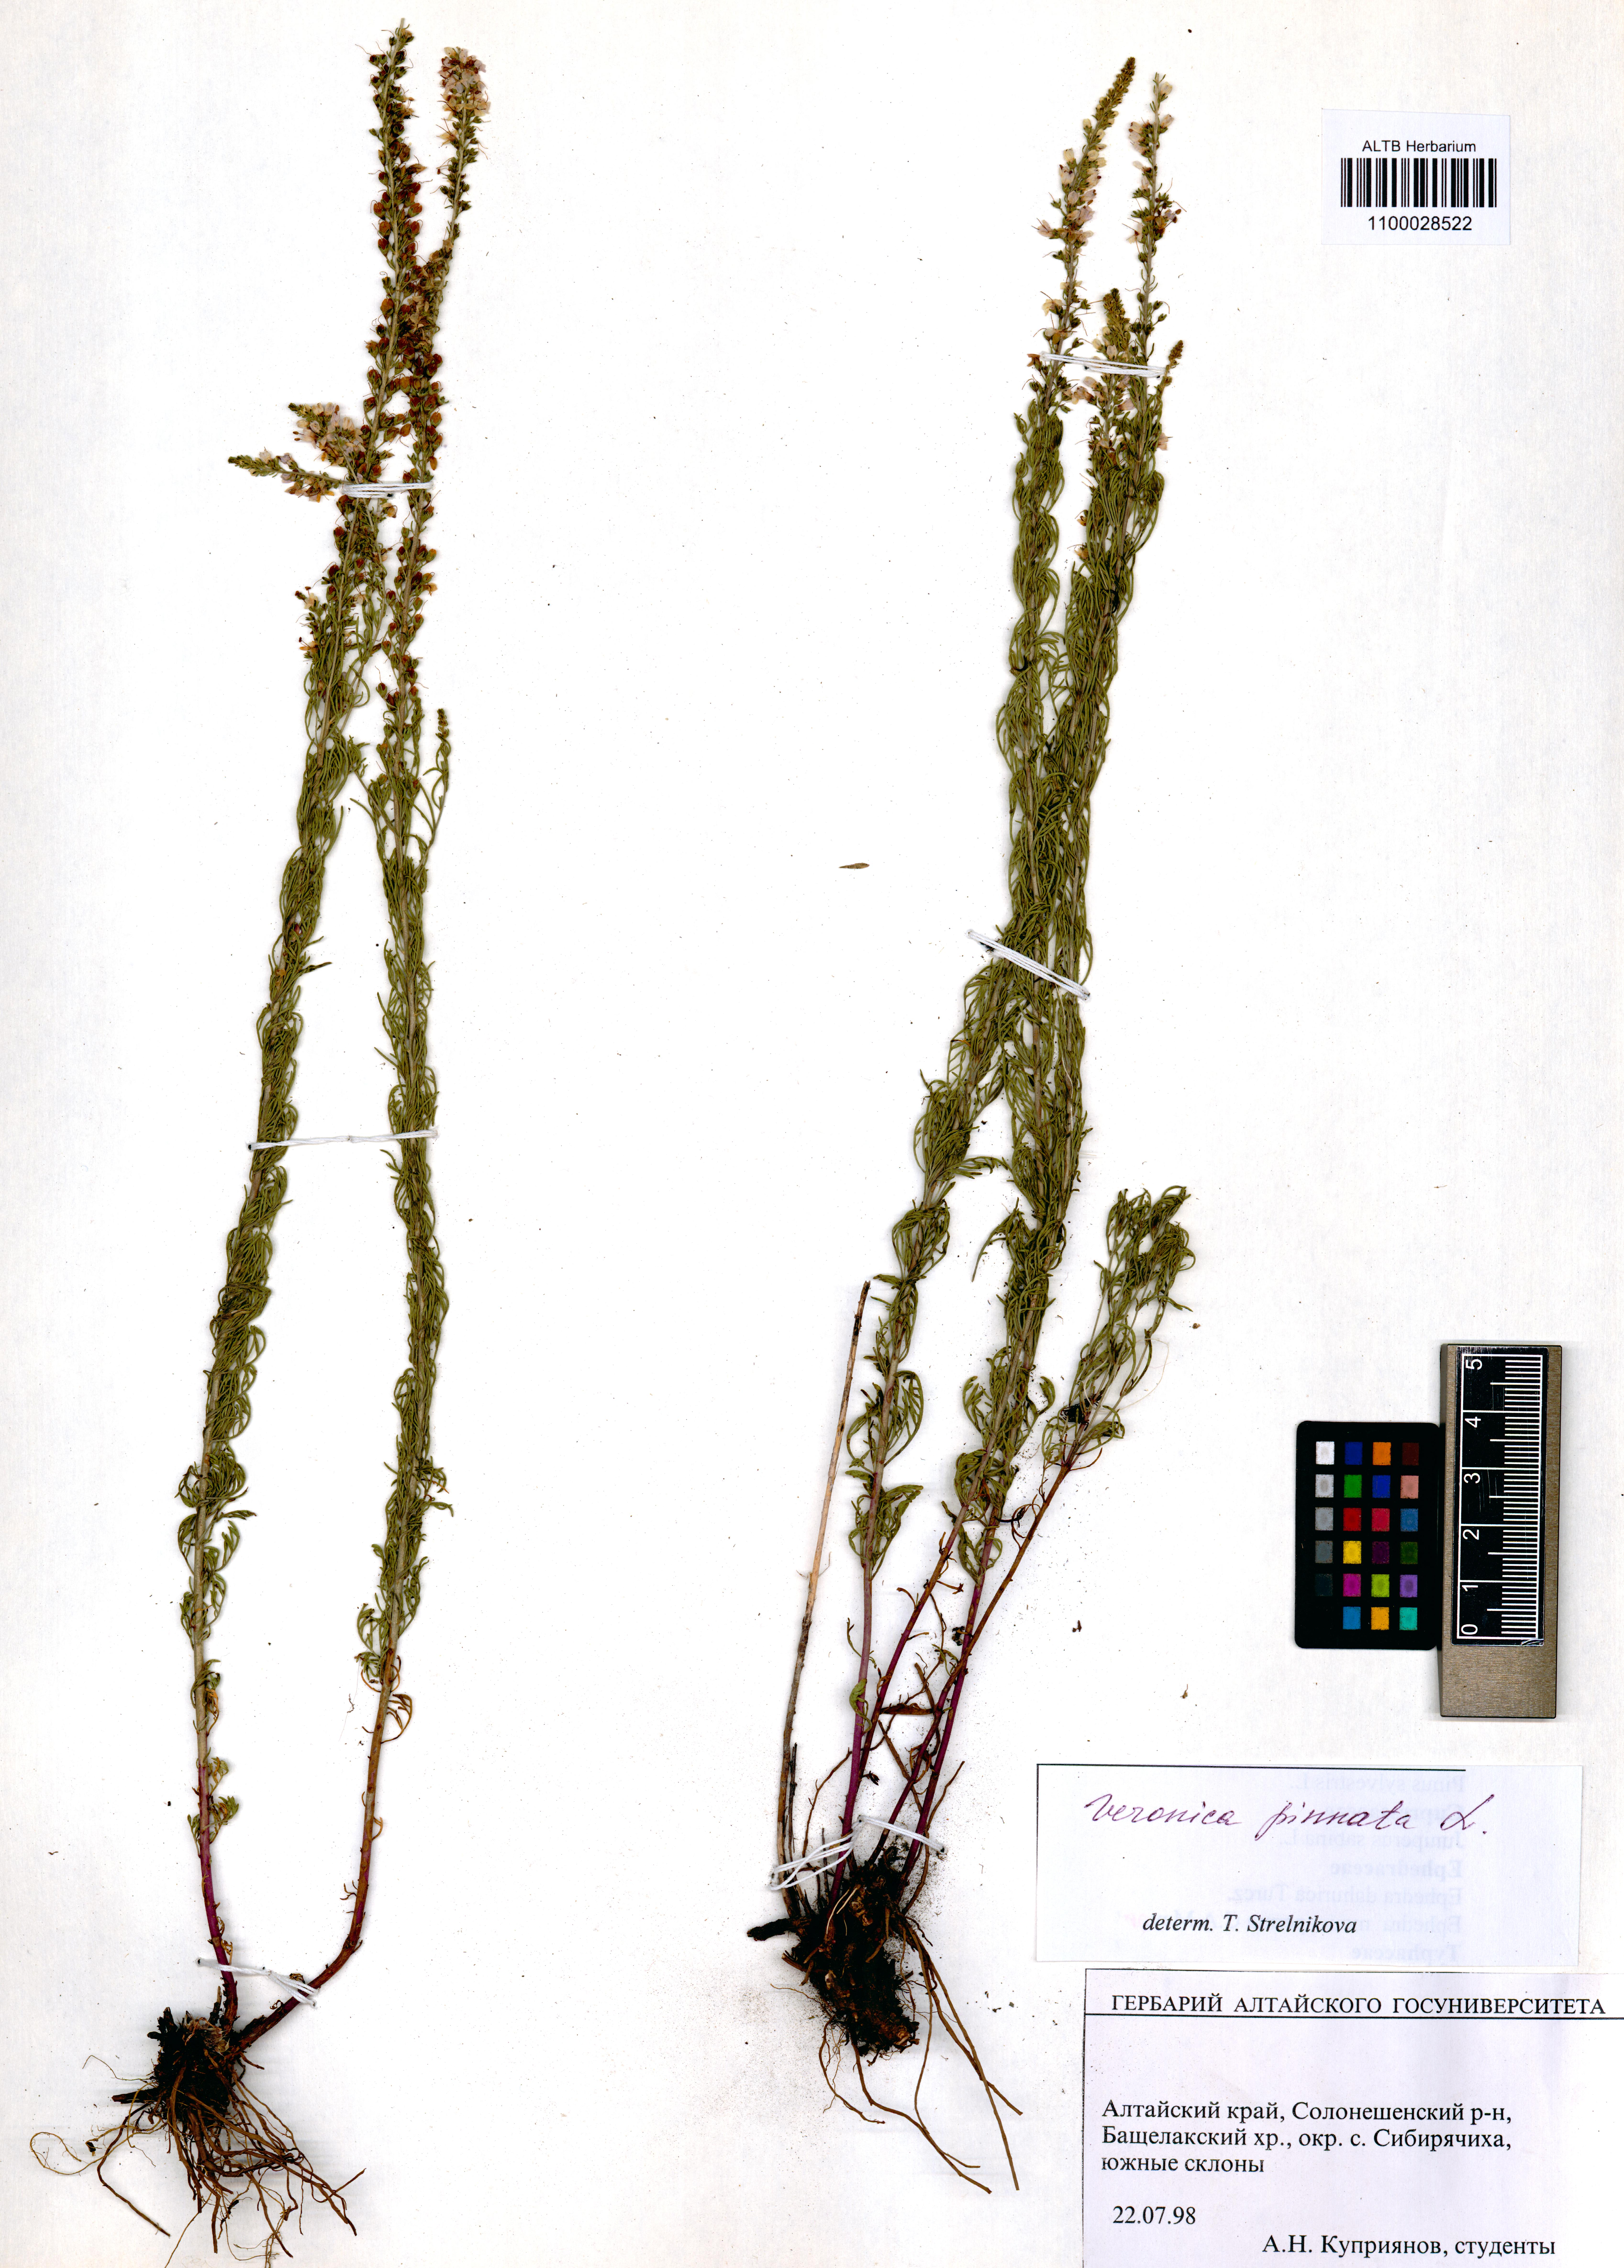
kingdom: Plantae
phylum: Tracheophyta
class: Magnoliopsida
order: Lamiales
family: Plantaginaceae
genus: Veronica
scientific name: Veronica pinnata
